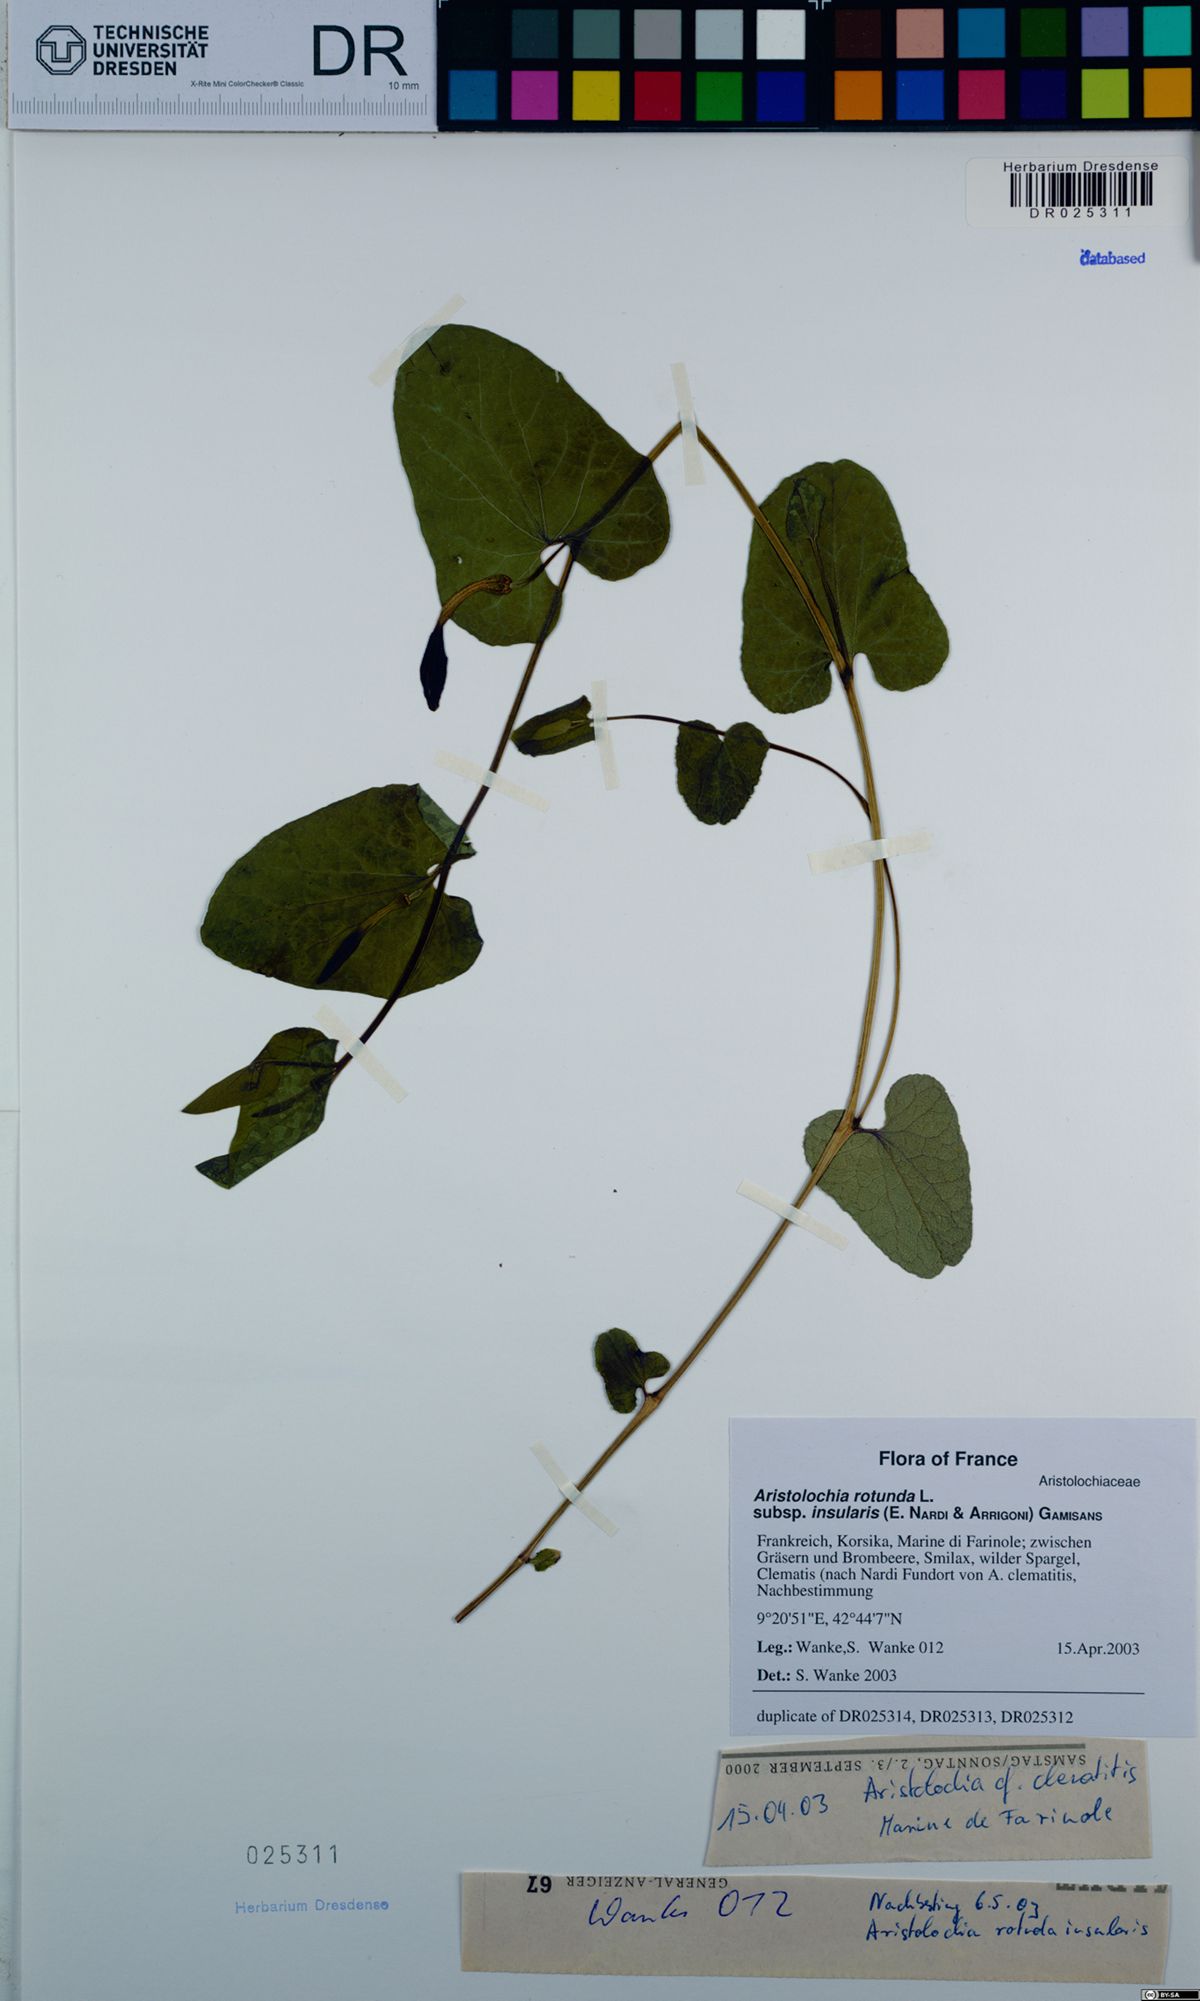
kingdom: Plantae
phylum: Tracheophyta
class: Magnoliopsida
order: Piperales
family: Aristolochiaceae
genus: Aristolochia
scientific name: Aristolochia rotunda
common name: Smearwort
